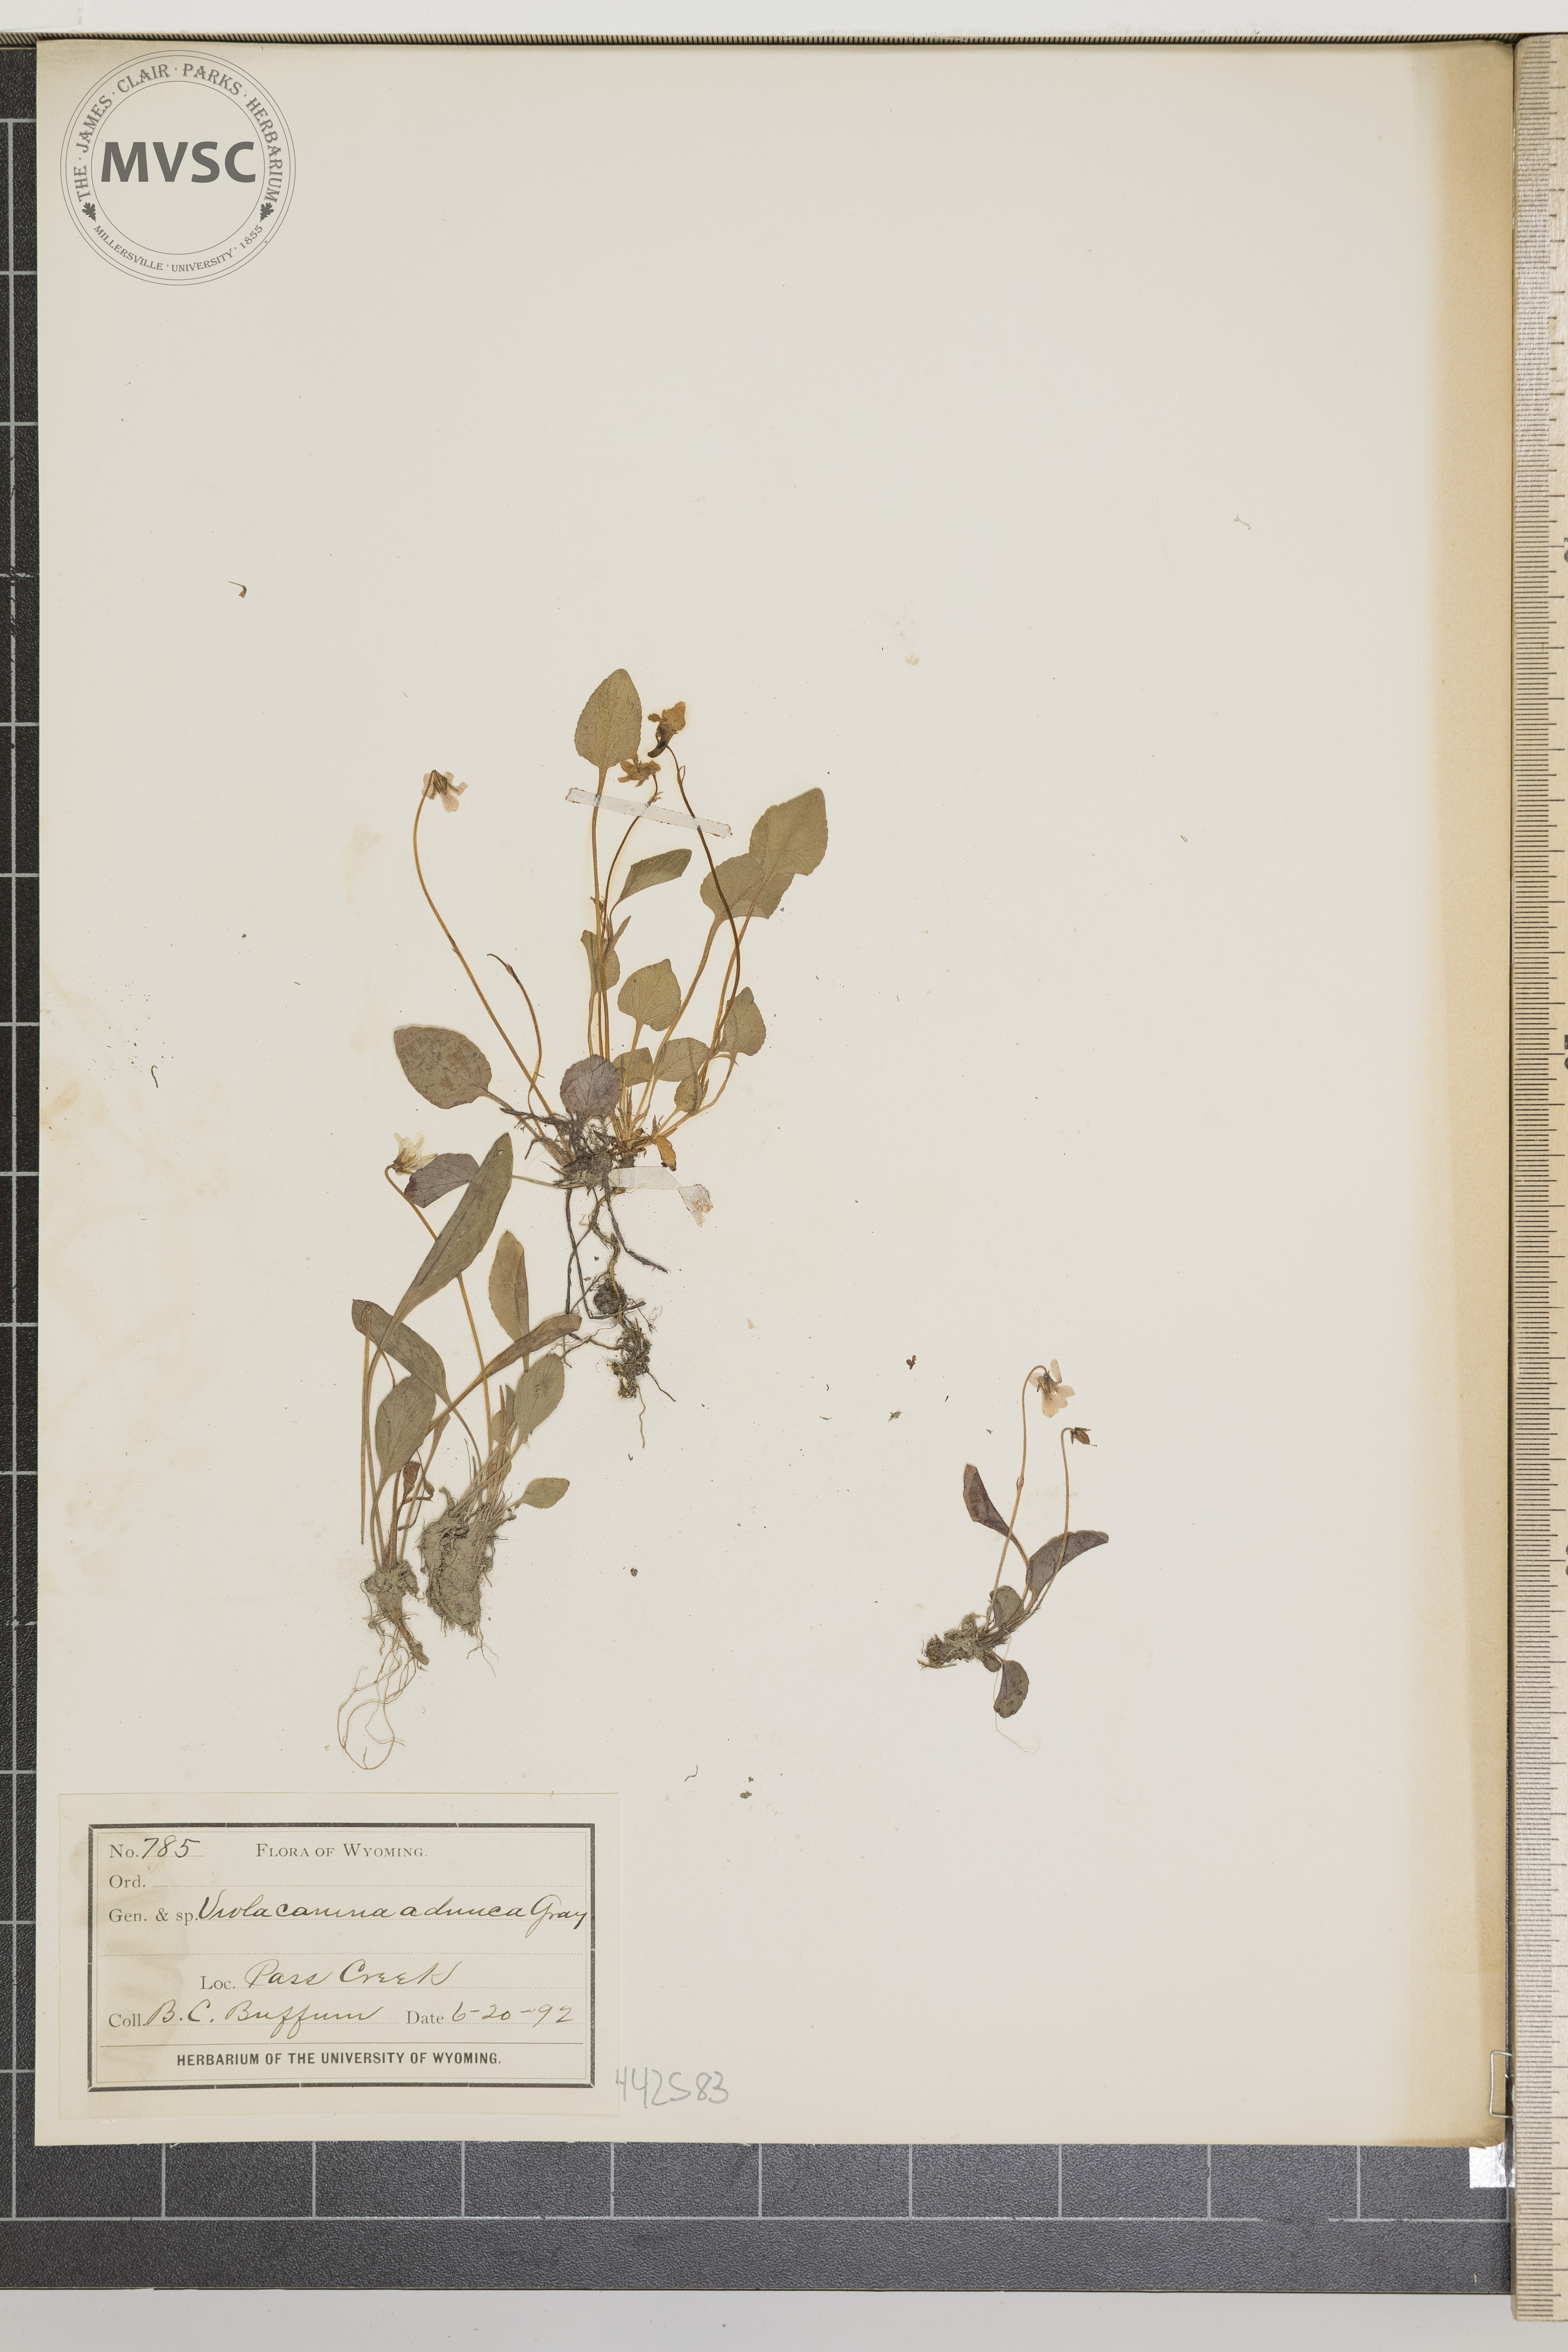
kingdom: Plantae
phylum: Tracheophyta
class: Magnoliopsida
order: Malpighiales
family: Violaceae
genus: Viola
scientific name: Viola adunca
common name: Sand violet
